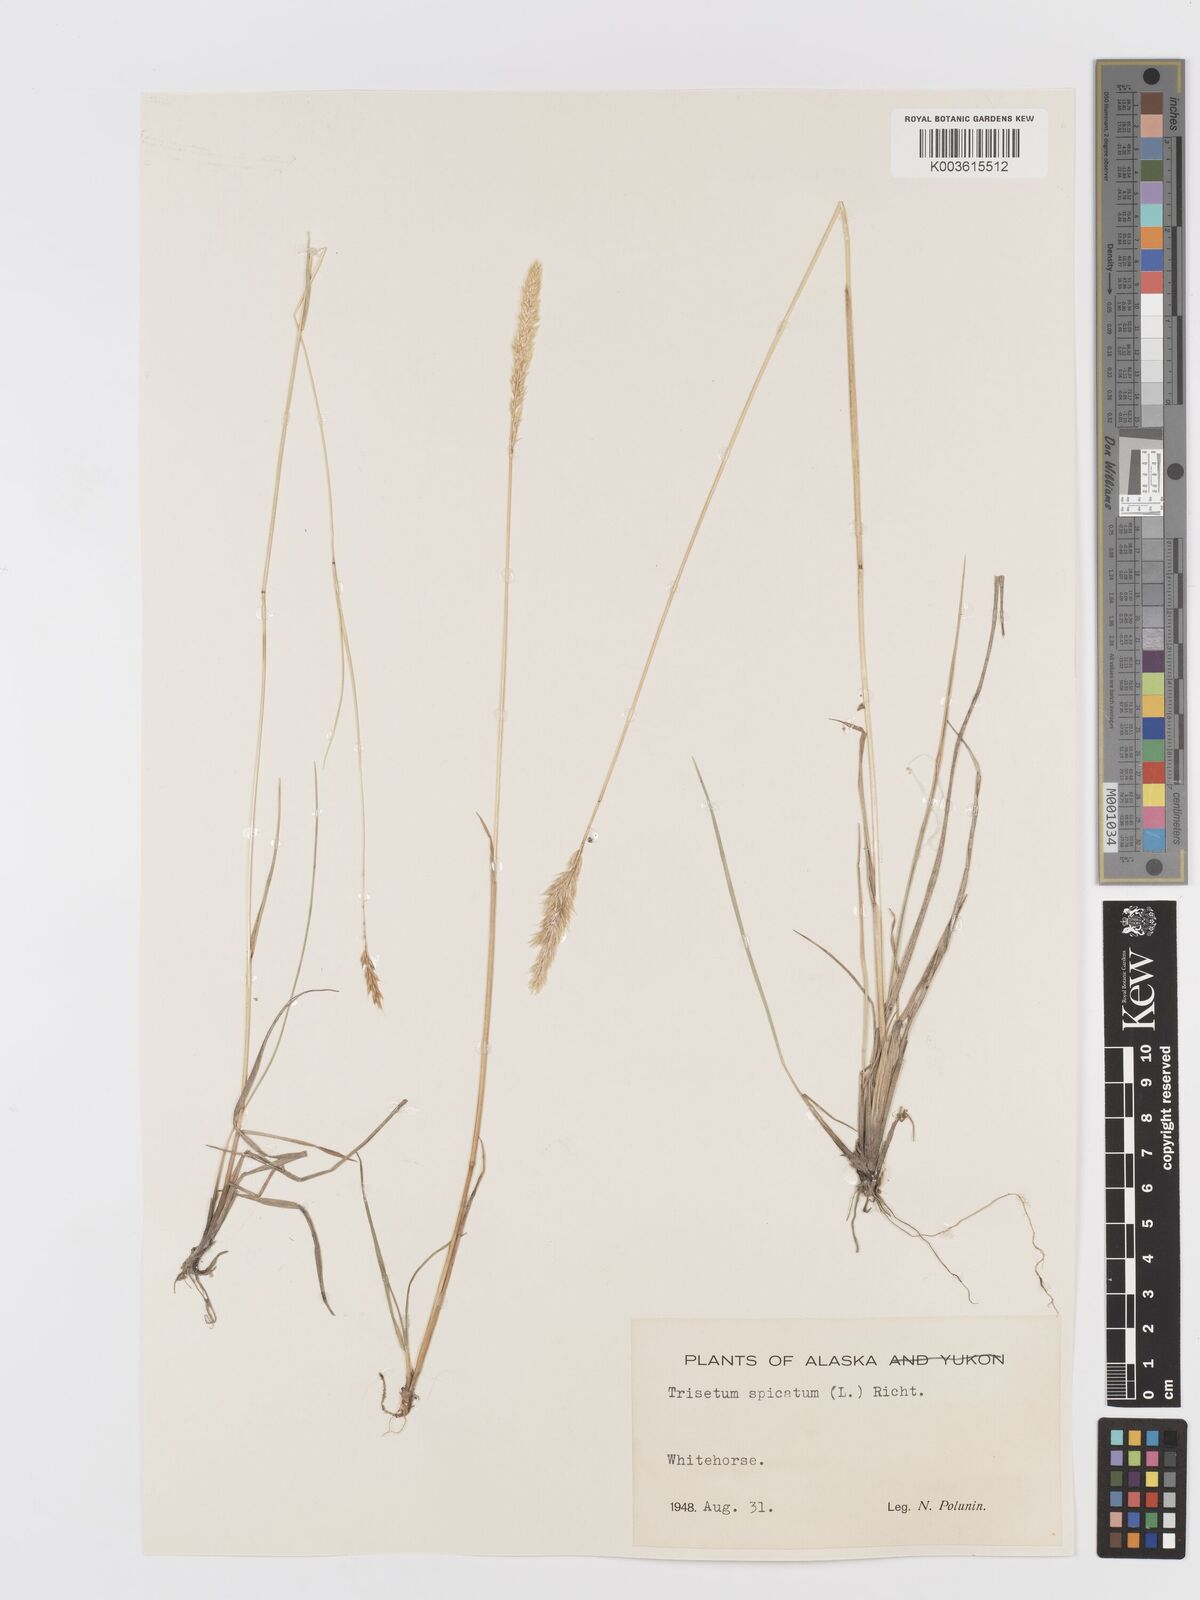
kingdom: Plantae
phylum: Tracheophyta
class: Liliopsida
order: Poales
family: Poaceae
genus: Koeleria
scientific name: Koeleria spicata
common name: Mountain trisetum
